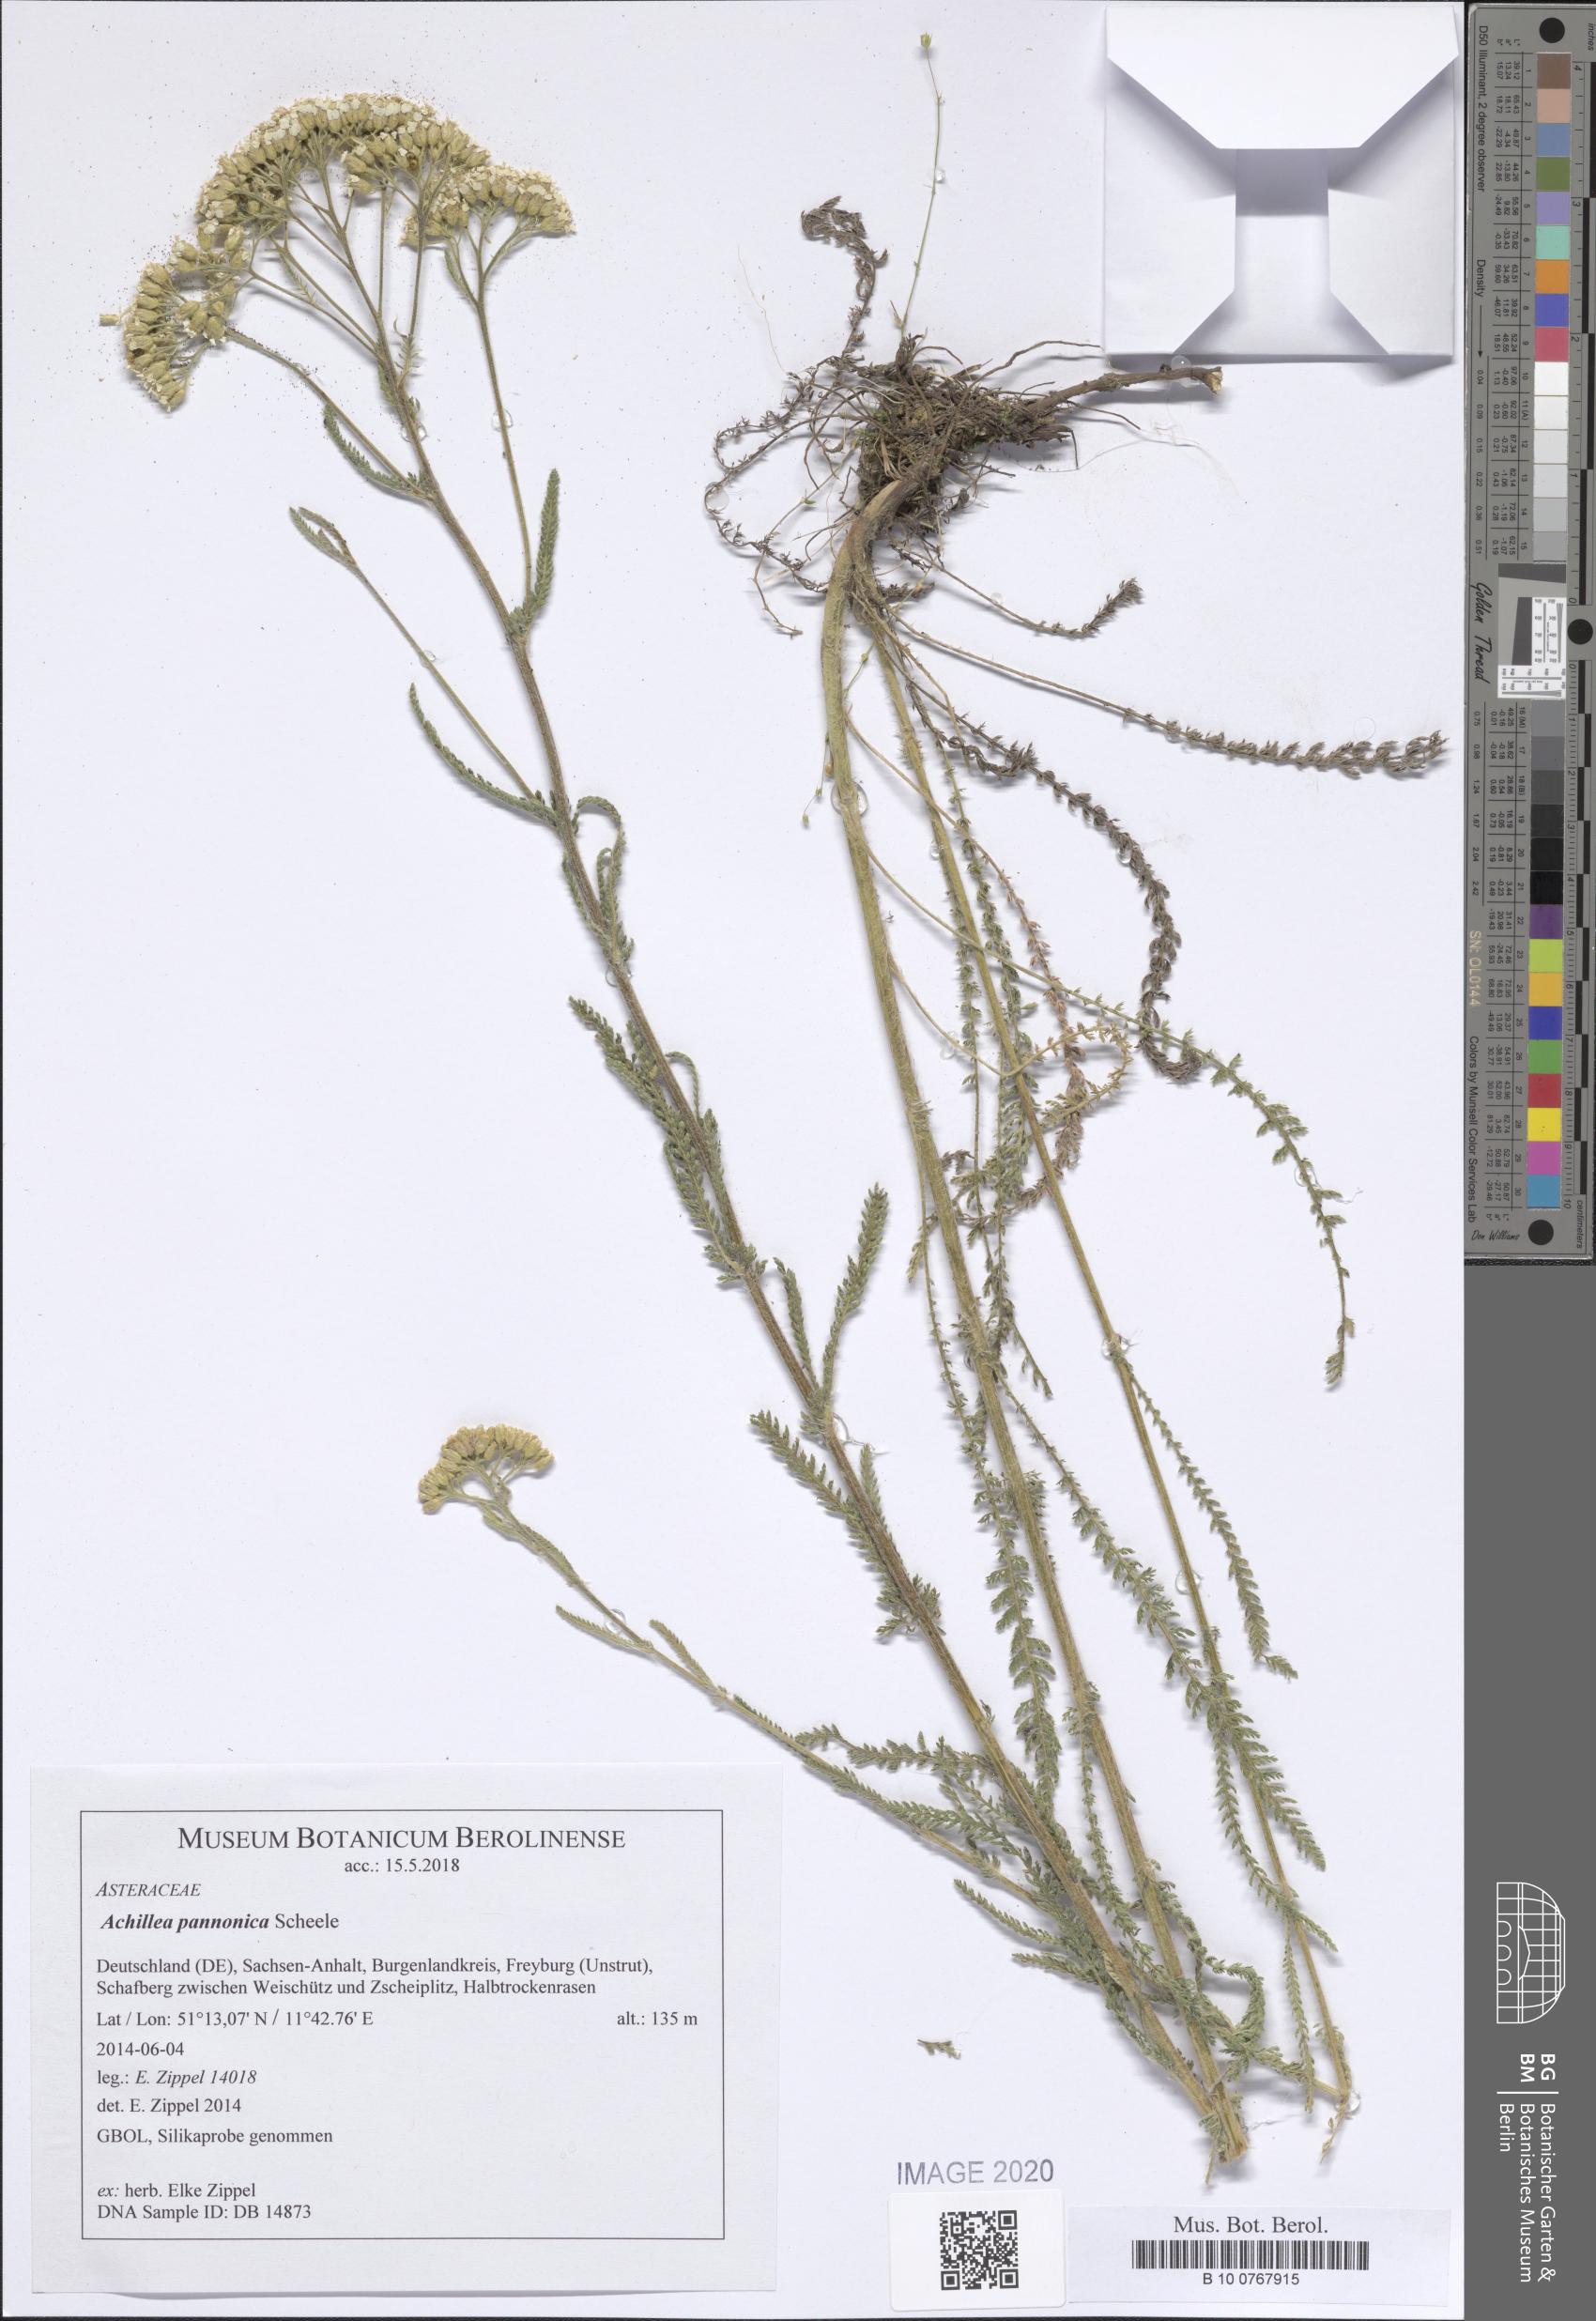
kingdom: Plantae
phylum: Tracheophyta
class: Magnoliopsida
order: Asterales
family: Asteraceae
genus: Achillea
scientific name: Achillea pannonica
